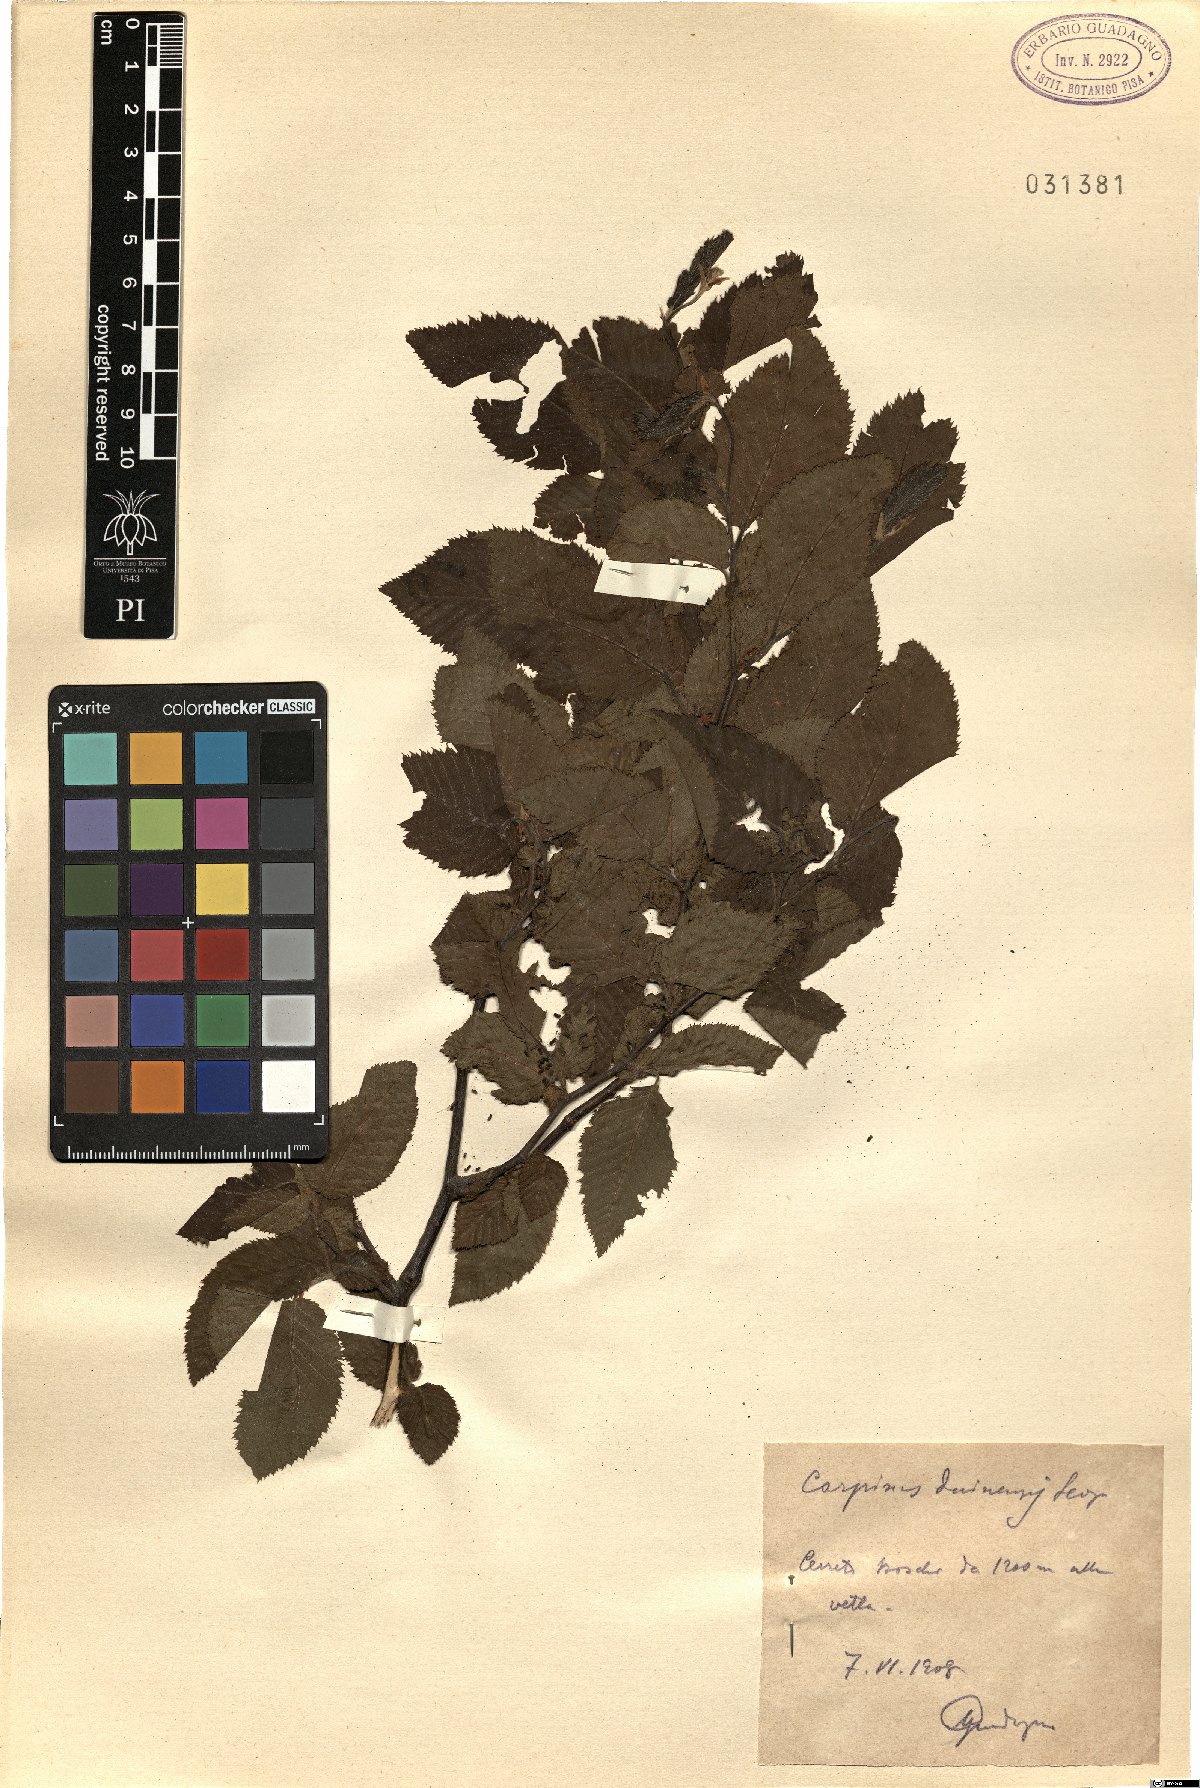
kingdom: Plantae
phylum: Tracheophyta
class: Magnoliopsida
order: Fagales
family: Betulaceae
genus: Carpinus
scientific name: Carpinus orientalis
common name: Eastern hornbeam
